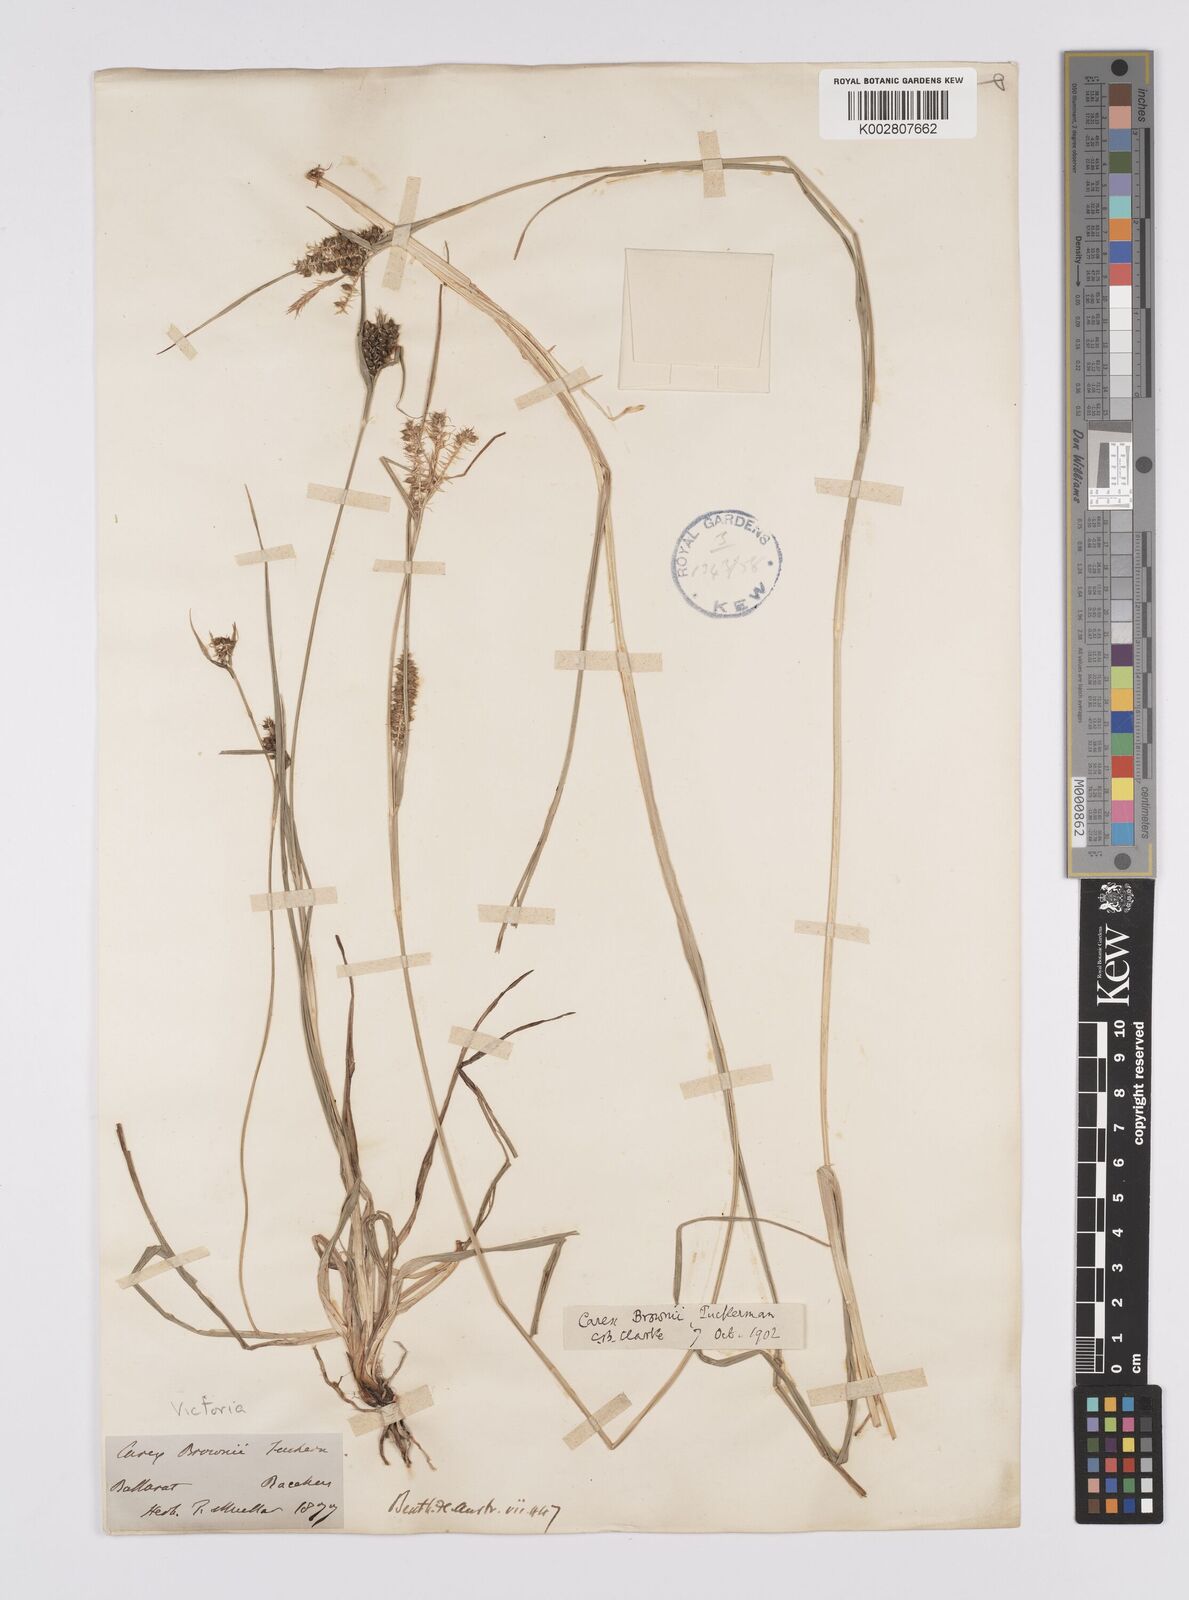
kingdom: Plantae
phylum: Tracheophyta
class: Liliopsida
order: Poales
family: Cyperaceae
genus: Carex
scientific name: Carex brownii
